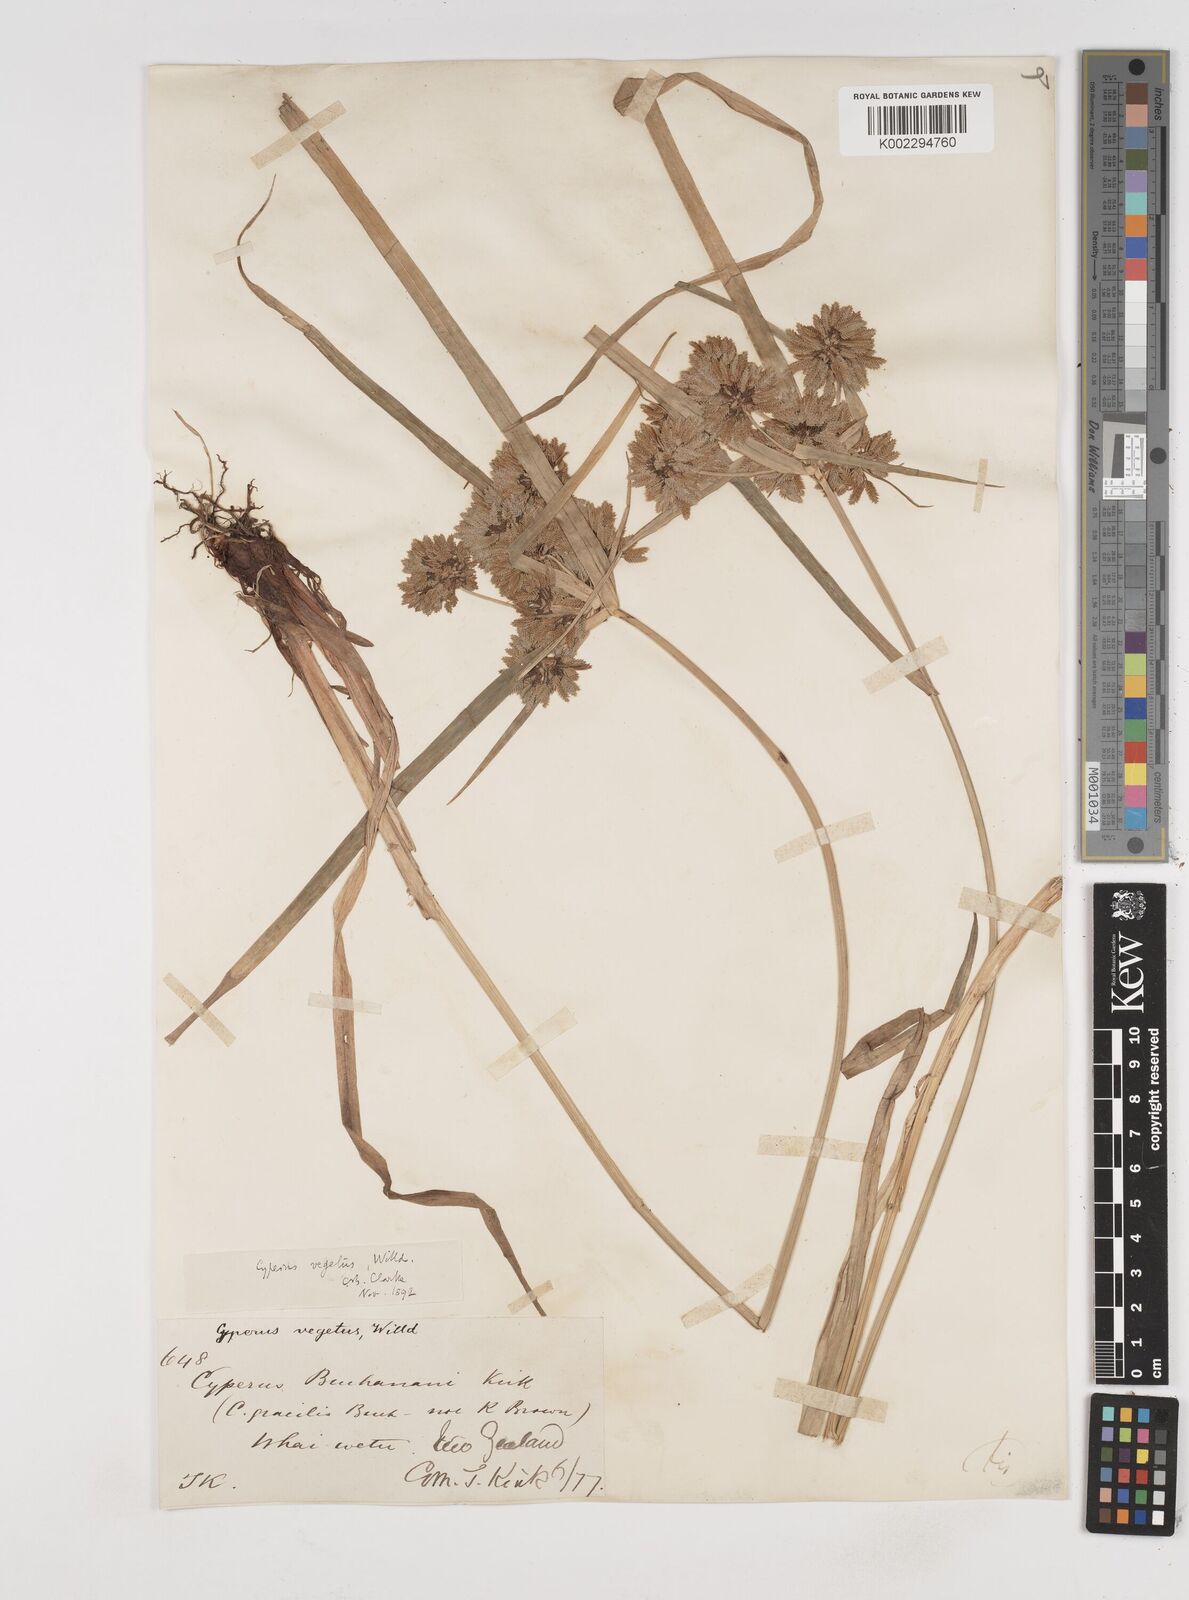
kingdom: Plantae
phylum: Tracheophyta
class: Liliopsida
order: Poales
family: Cyperaceae
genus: Cyperus
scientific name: Cyperus eragrostis
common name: Tall flatsedge
